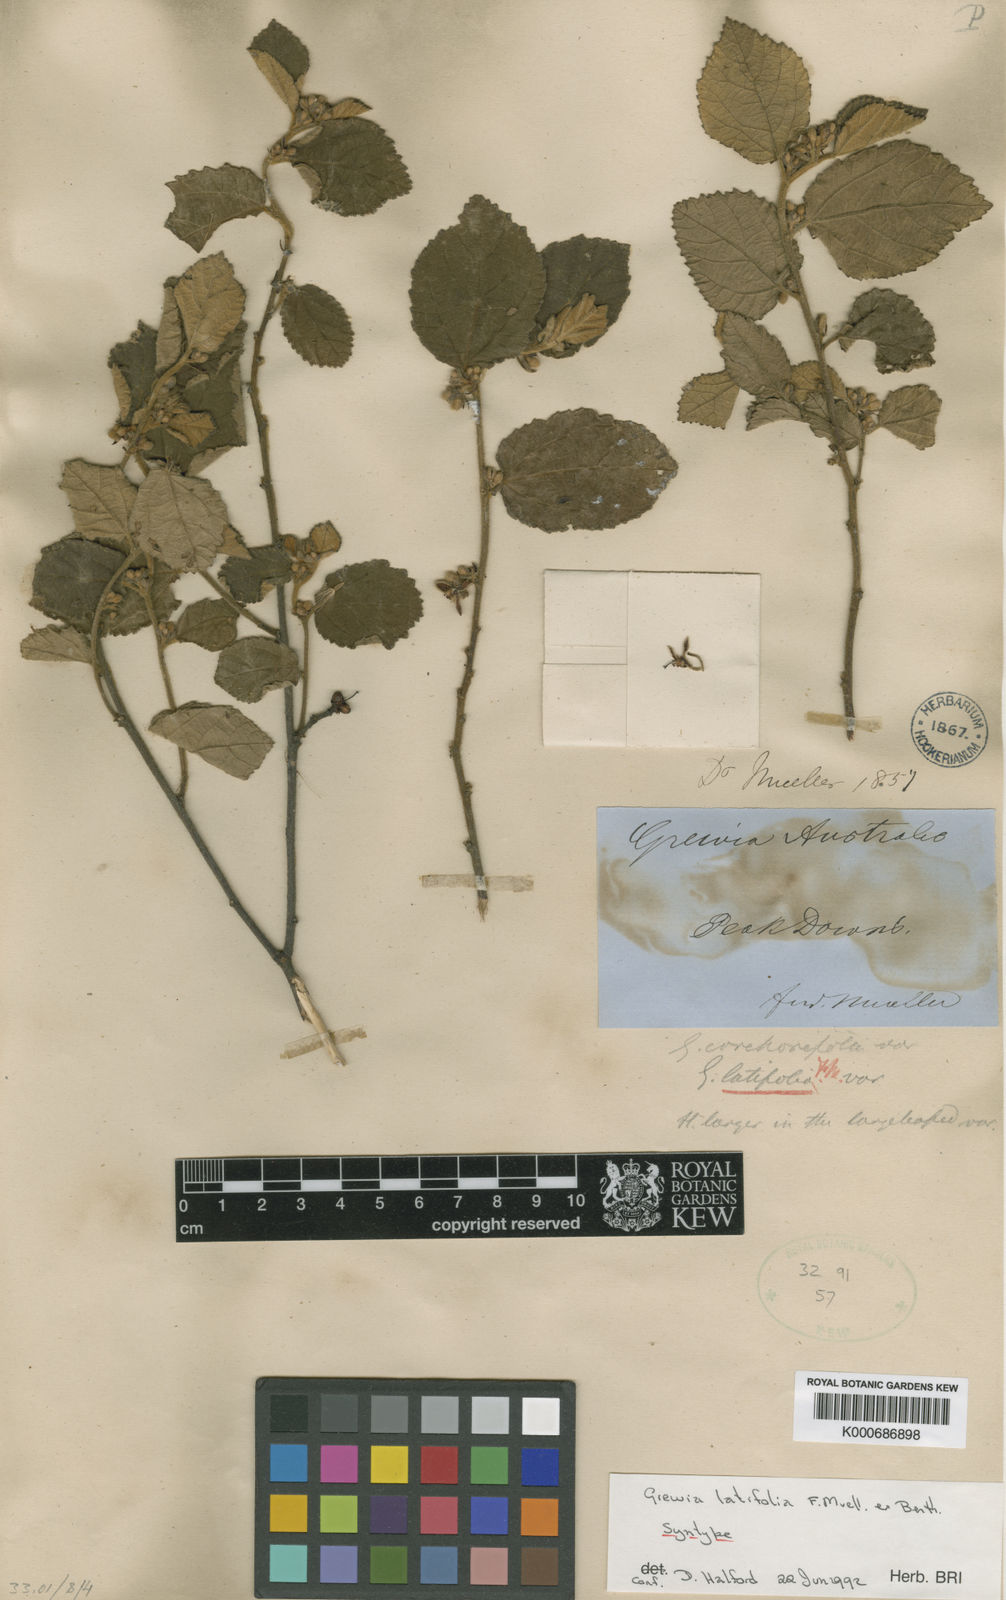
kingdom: Plantae
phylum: Tracheophyta
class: Magnoliopsida
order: Malvales
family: Malvaceae
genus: Grewia
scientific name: Grewia apetala
